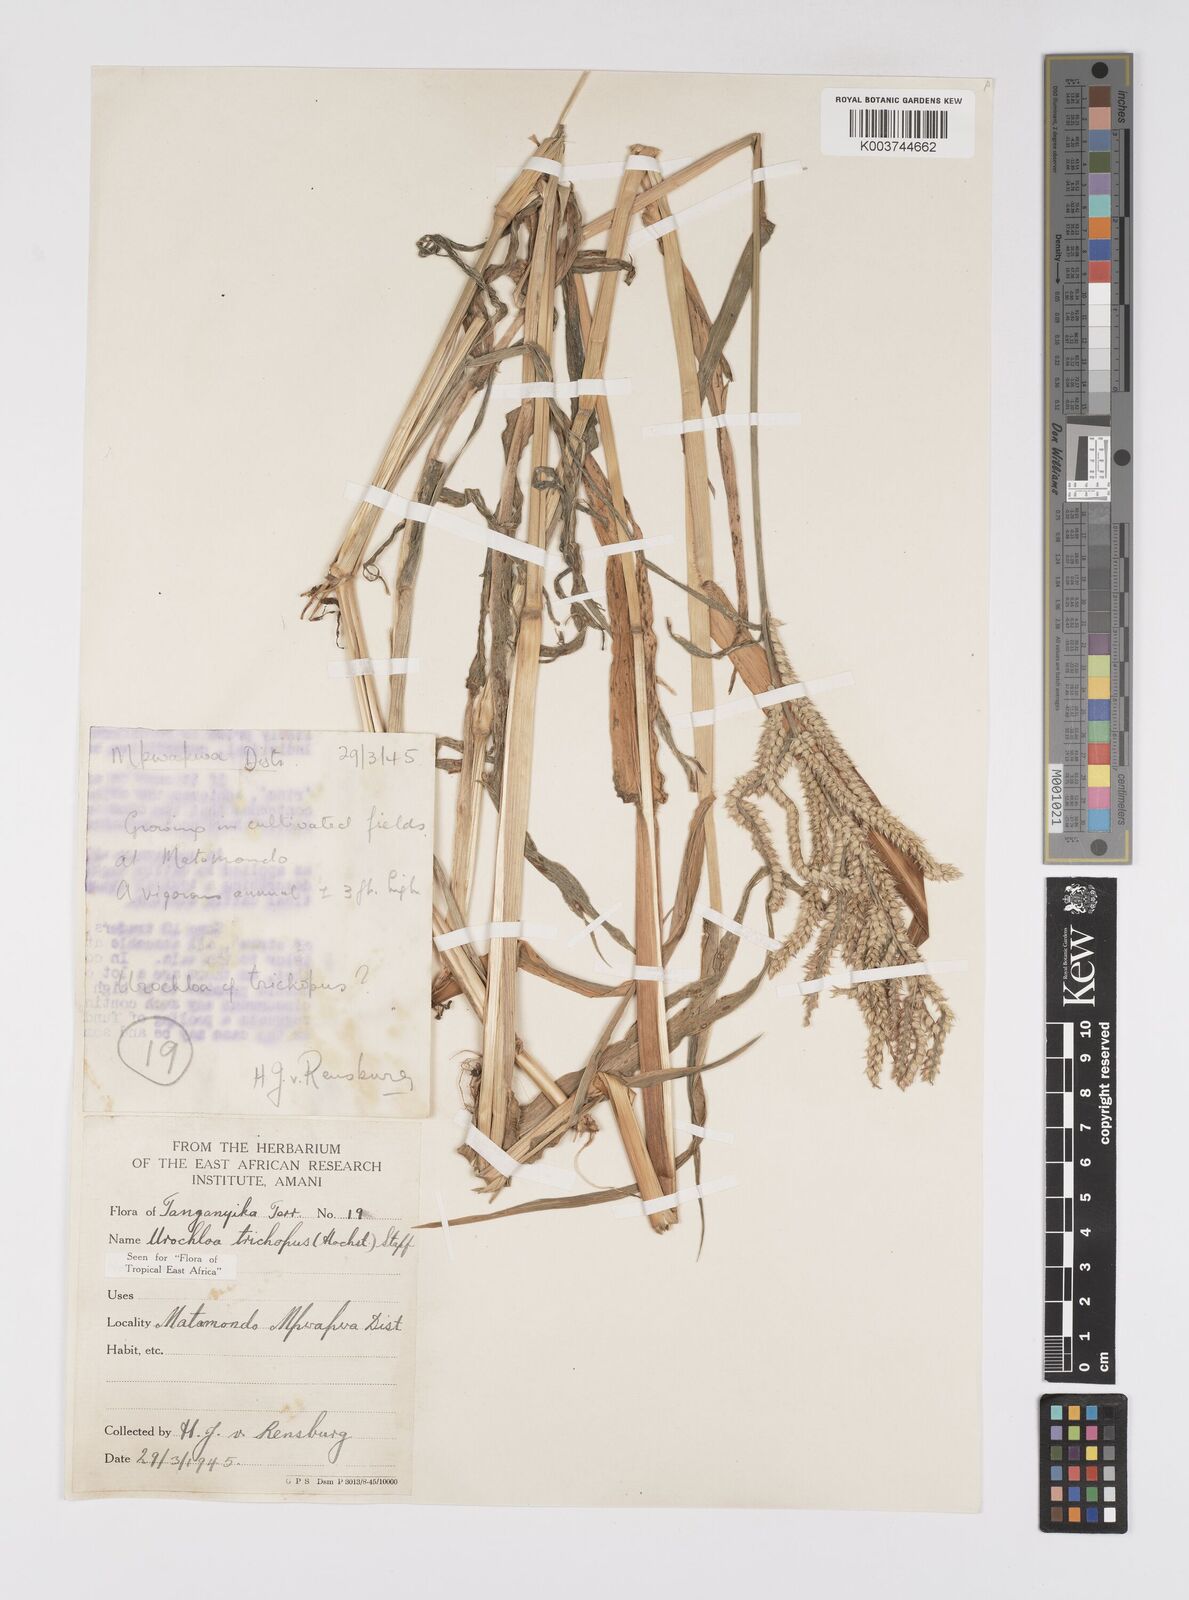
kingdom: Plantae
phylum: Tracheophyta
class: Liliopsida
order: Poales
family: Poaceae
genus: Urochloa
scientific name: Urochloa trichopus
